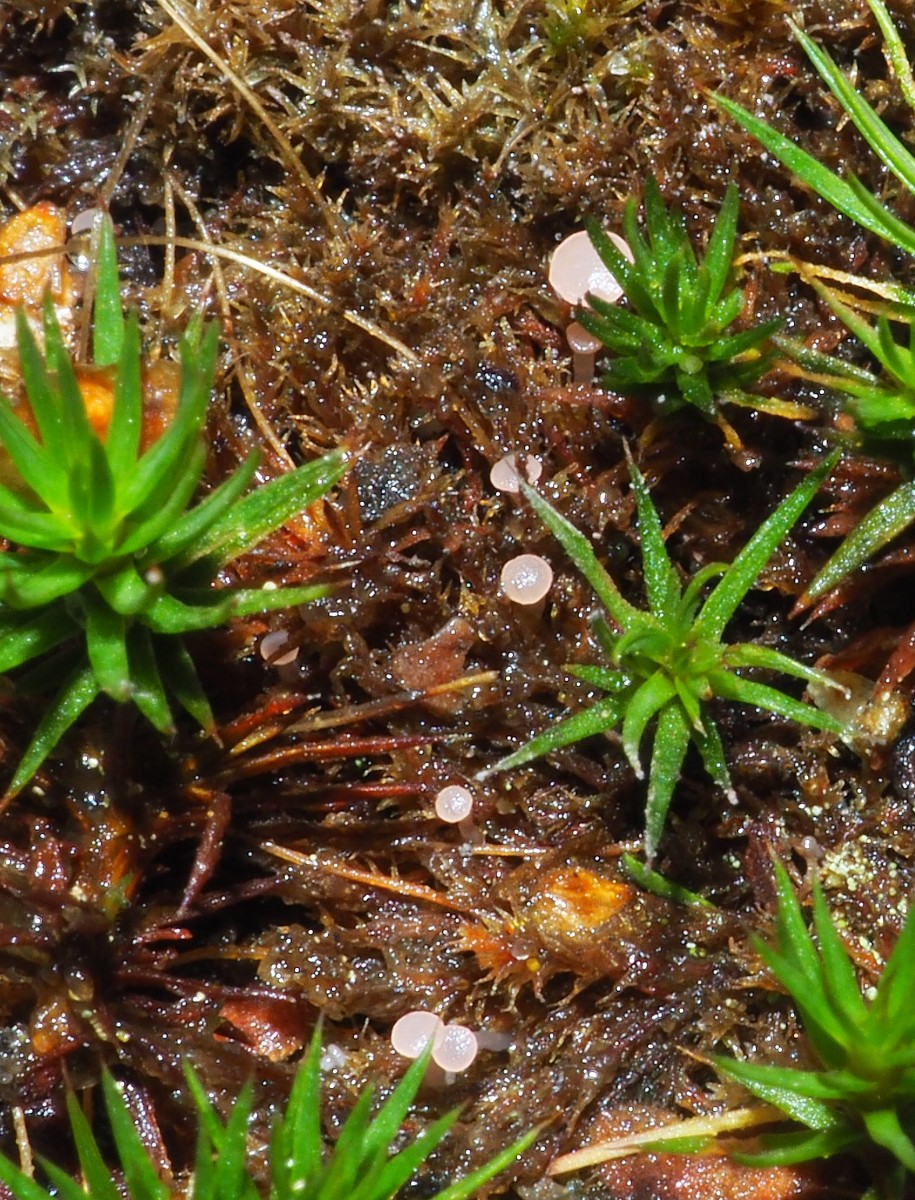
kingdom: Fungi
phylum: Ascomycota
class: Leotiomycetes
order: Helotiales
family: Hyaloscyphaceae
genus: Roseodiscus
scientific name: Roseodiscus formosus
